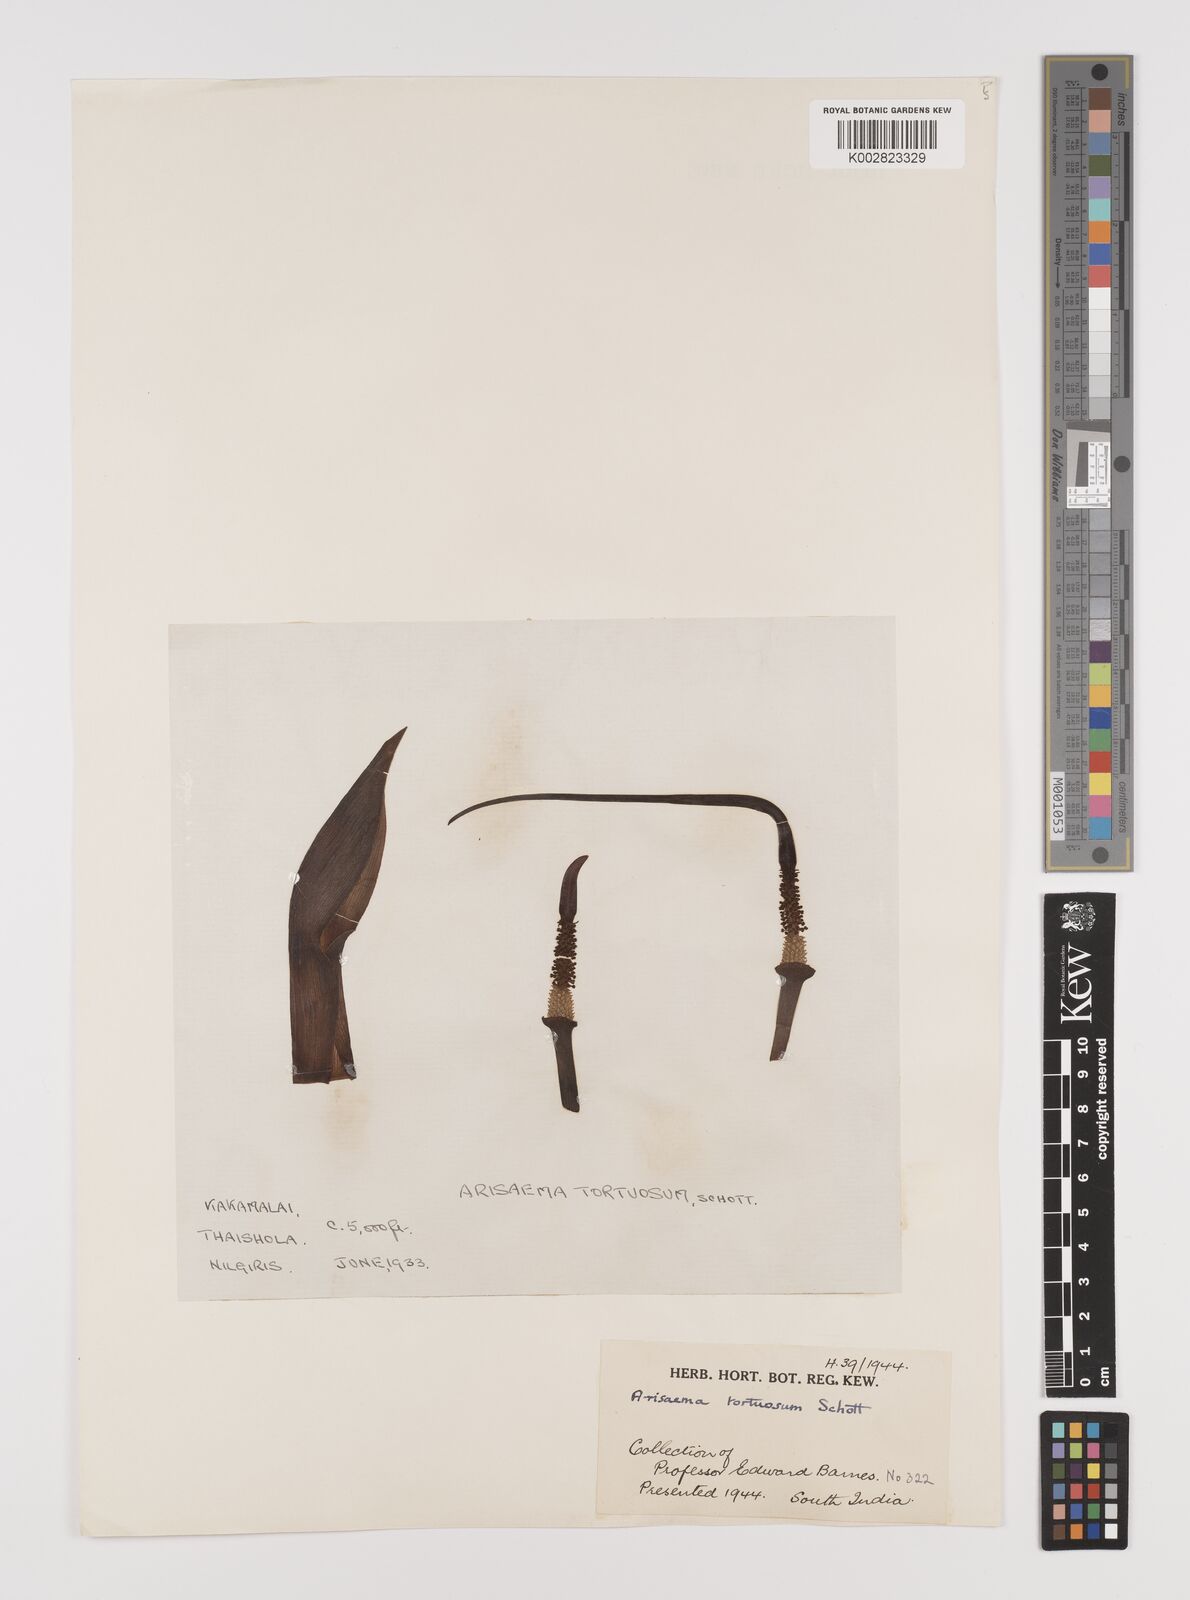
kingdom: Plantae
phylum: Tracheophyta
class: Liliopsida
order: Alismatales
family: Araceae
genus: Arisaema
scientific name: Arisaema tortuosum
